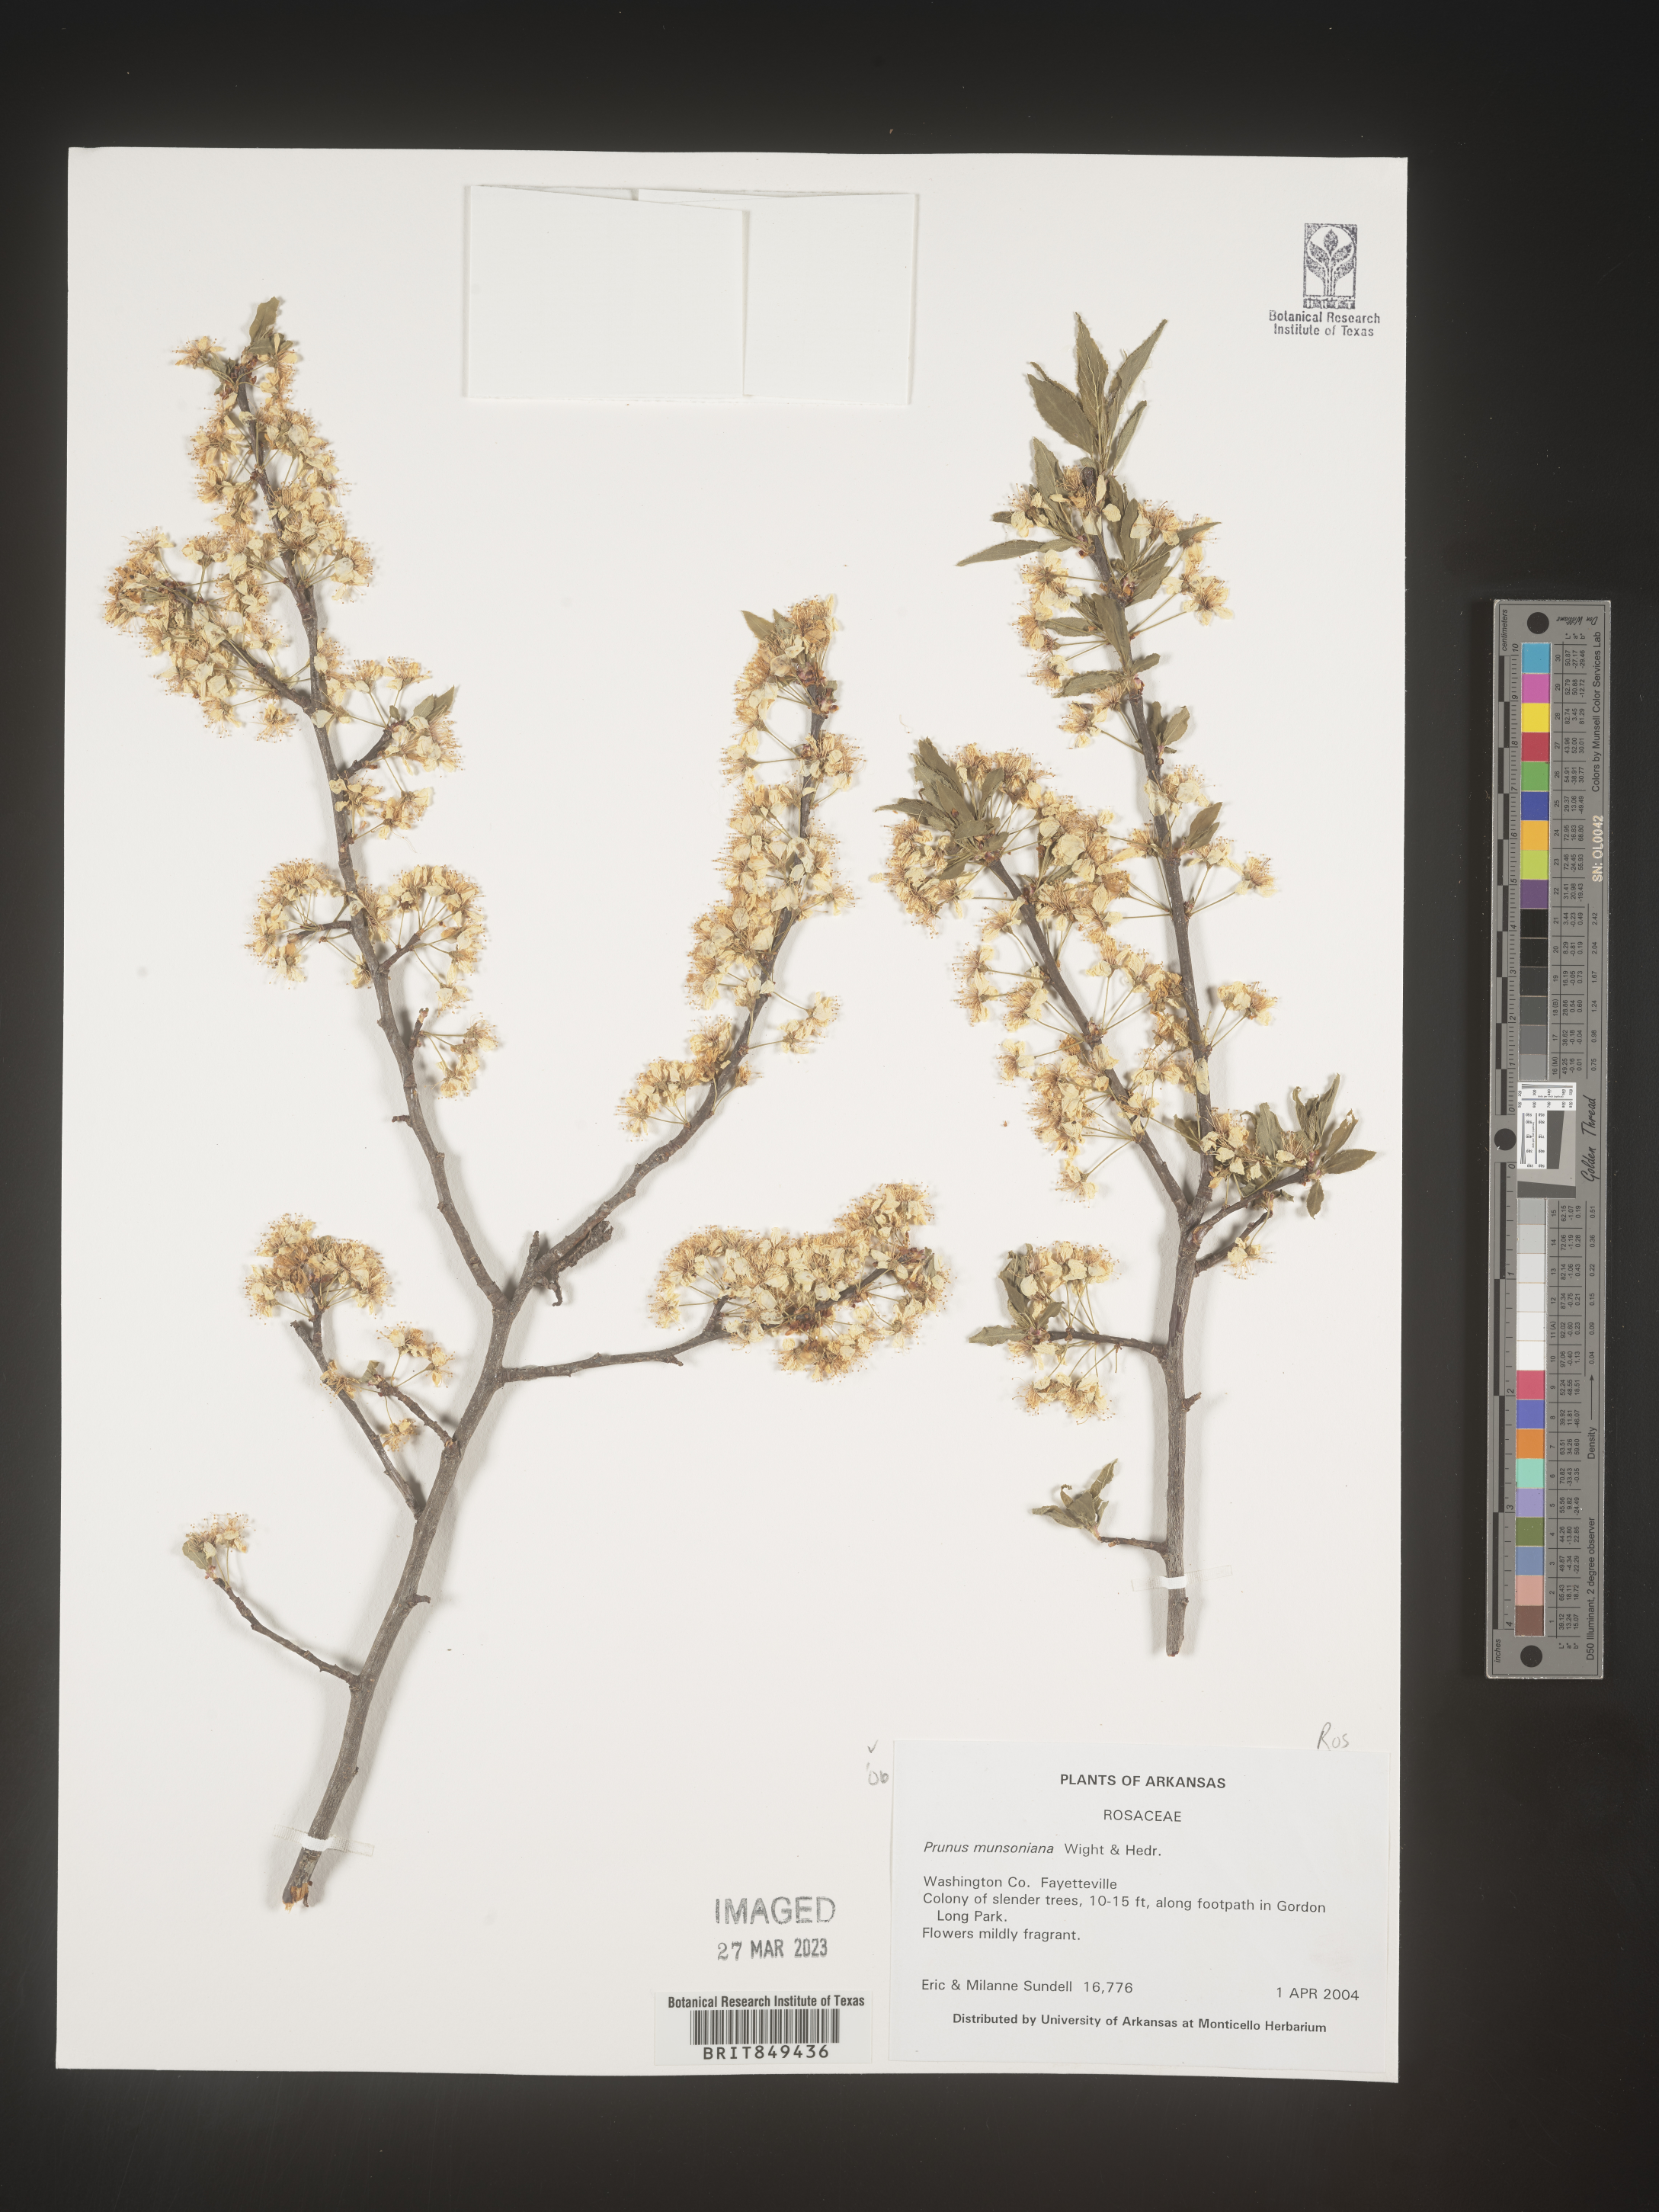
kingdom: Plantae
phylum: Tracheophyta
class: Magnoliopsida
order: Rosales
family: Rosaceae
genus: Prunus
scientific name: Prunus munsoniana
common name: Creek plum
